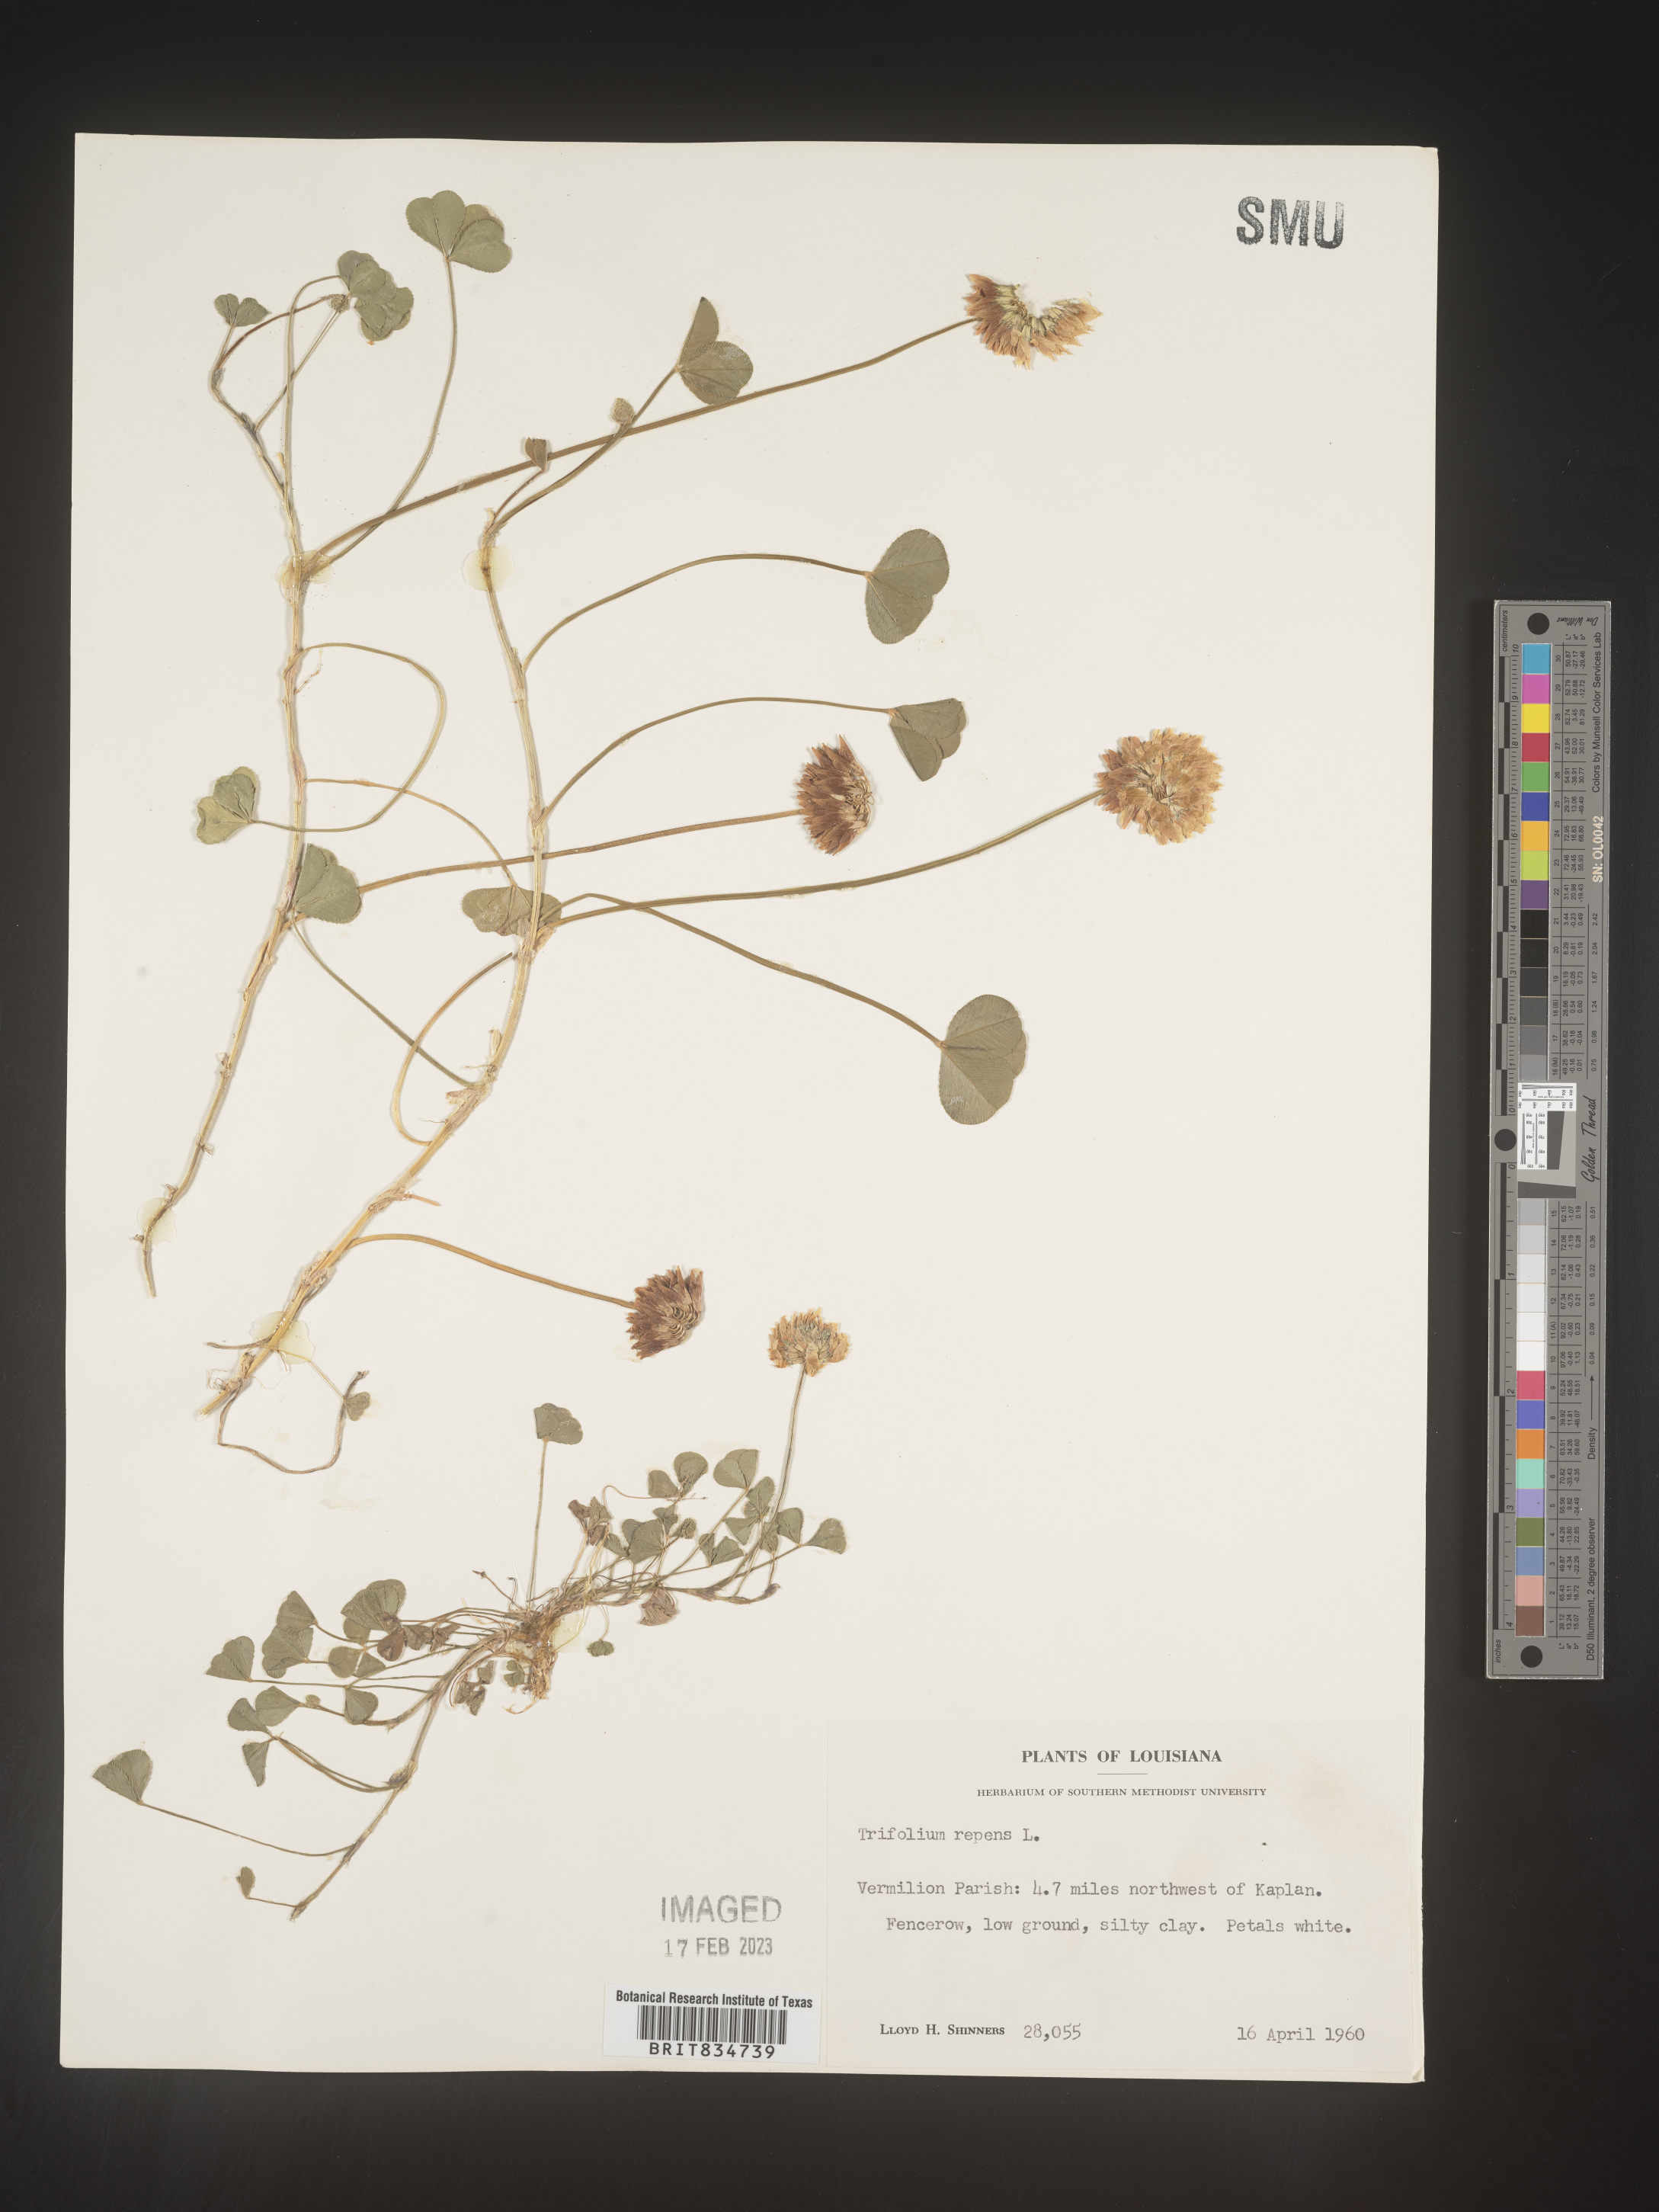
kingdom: Plantae
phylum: Tracheophyta
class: Magnoliopsida
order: Fabales
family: Fabaceae
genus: Trifolium
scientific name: Trifolium repens
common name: White clover
